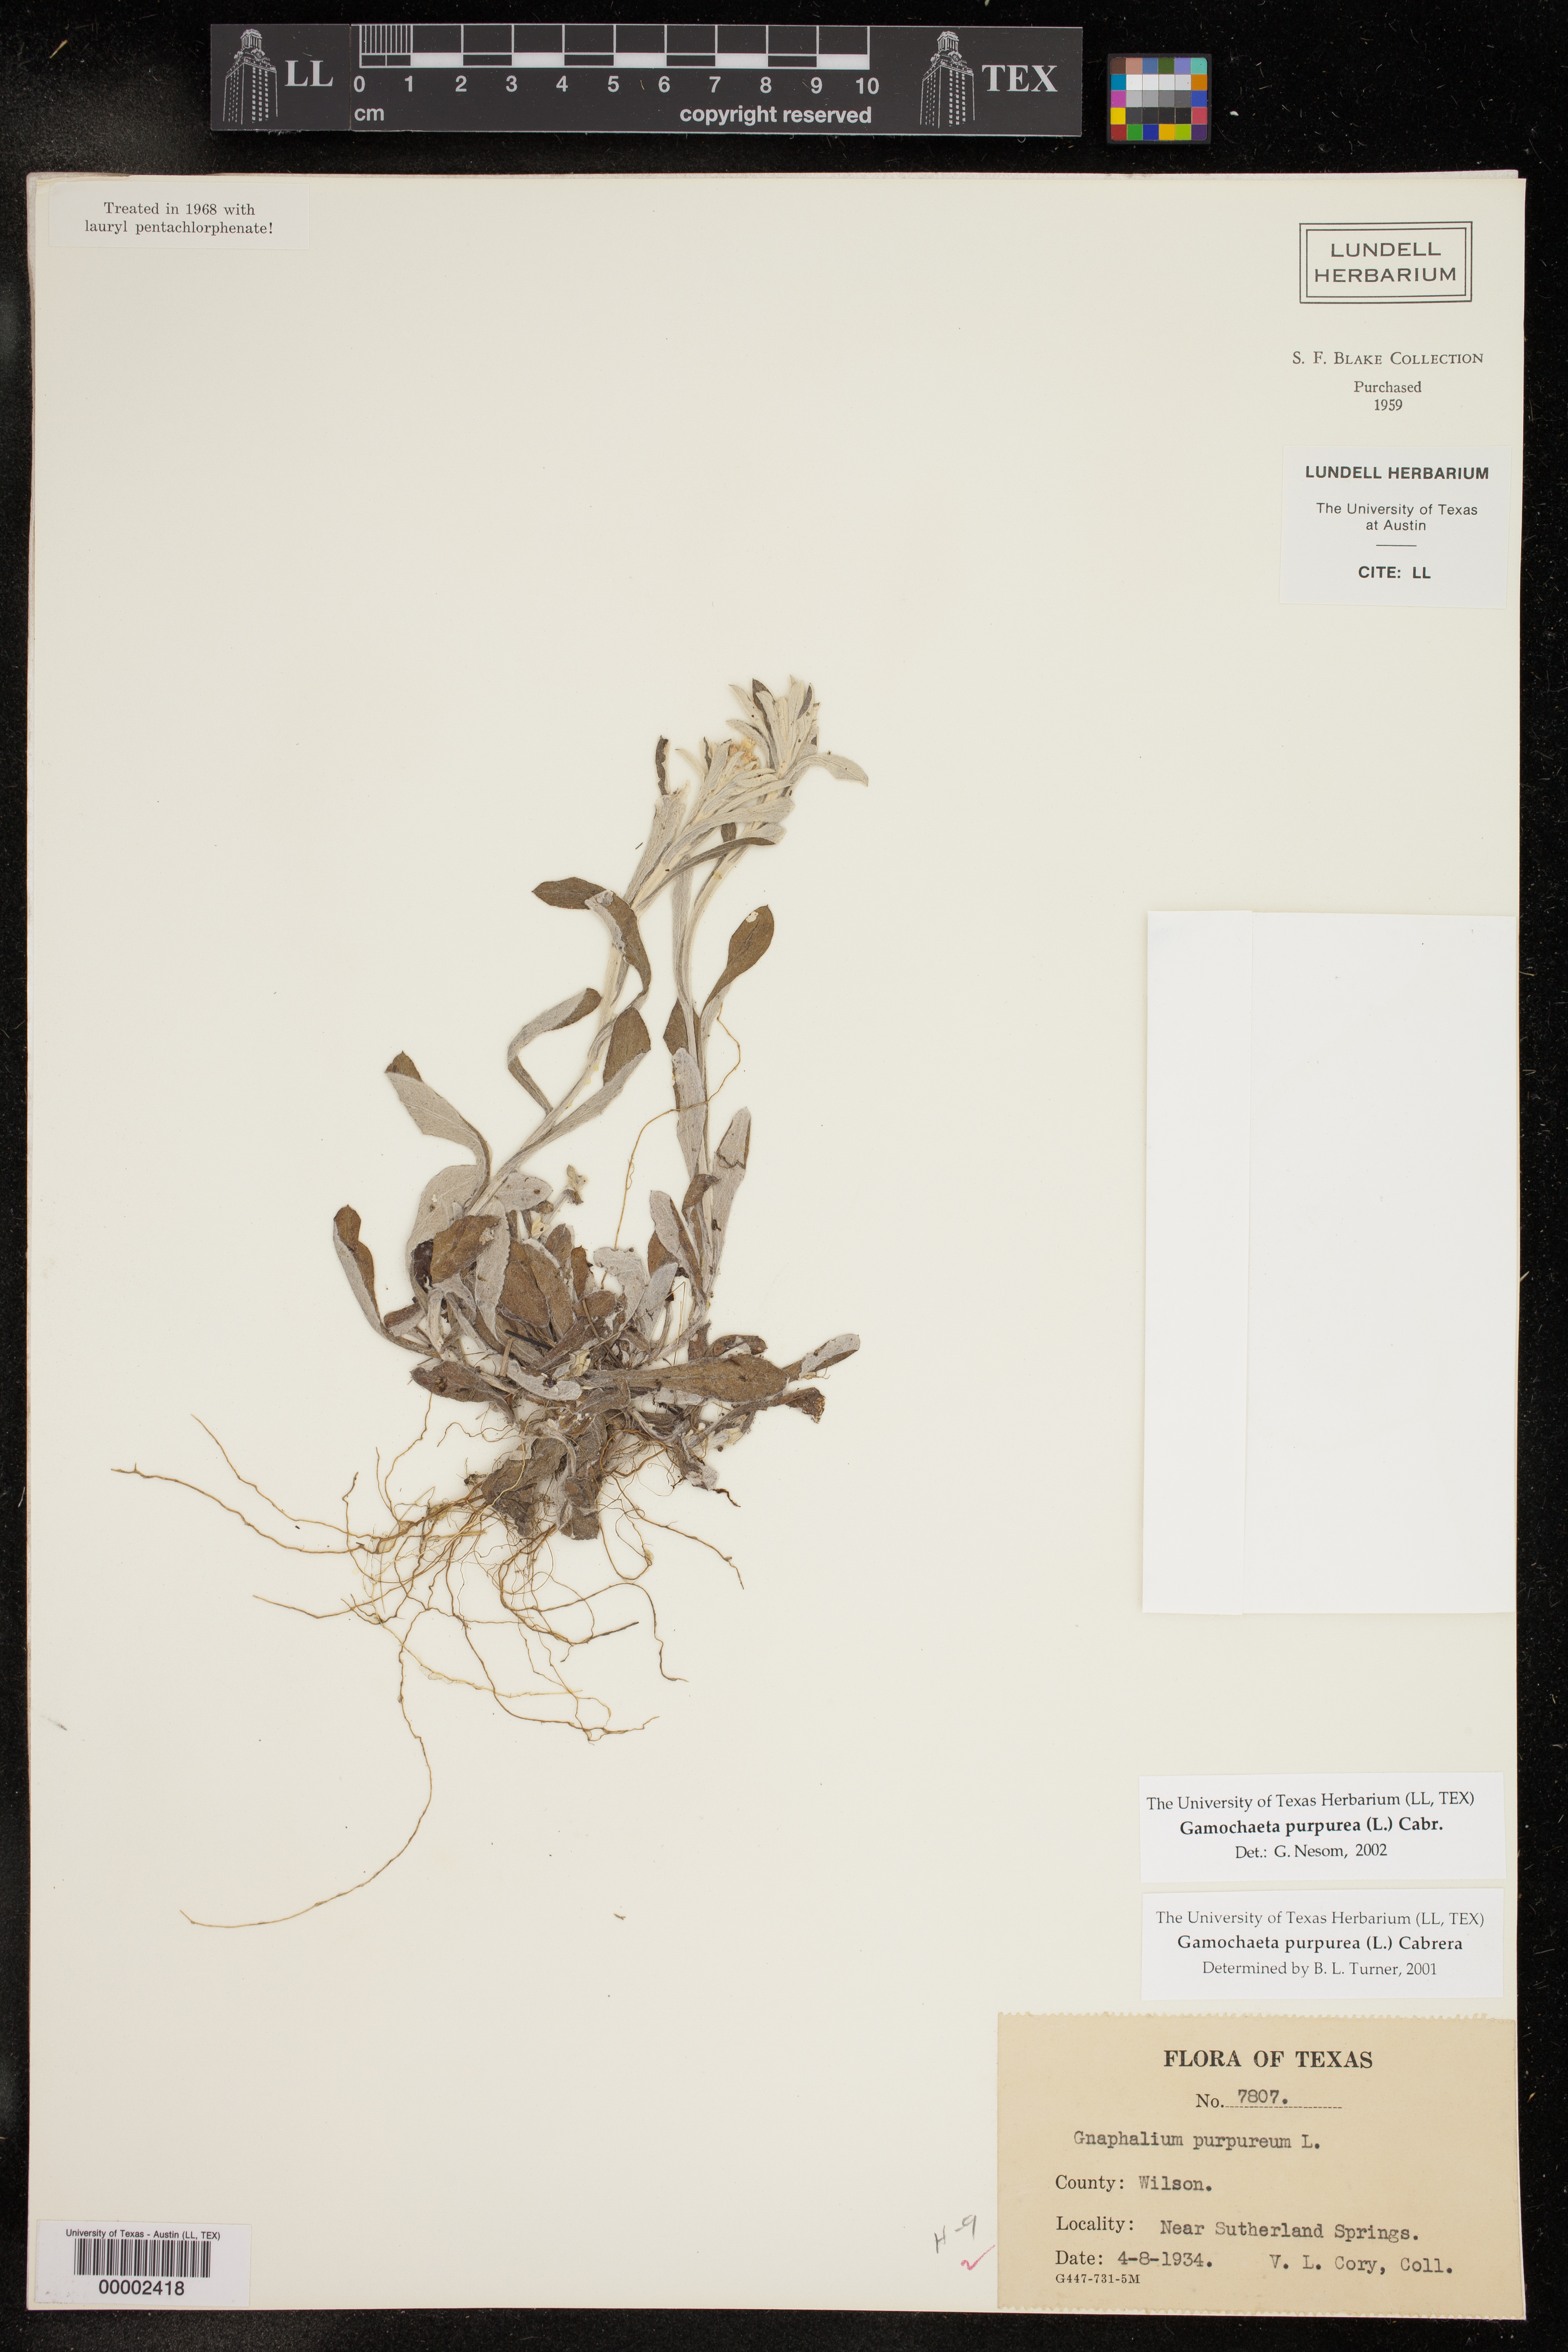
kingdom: Plantae
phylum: Tracheophyta
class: Magnoliopsida
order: Asterales
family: Asteraceae
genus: Gamochaeta
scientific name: Gamochaeta purpurea
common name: Purple cudweed
